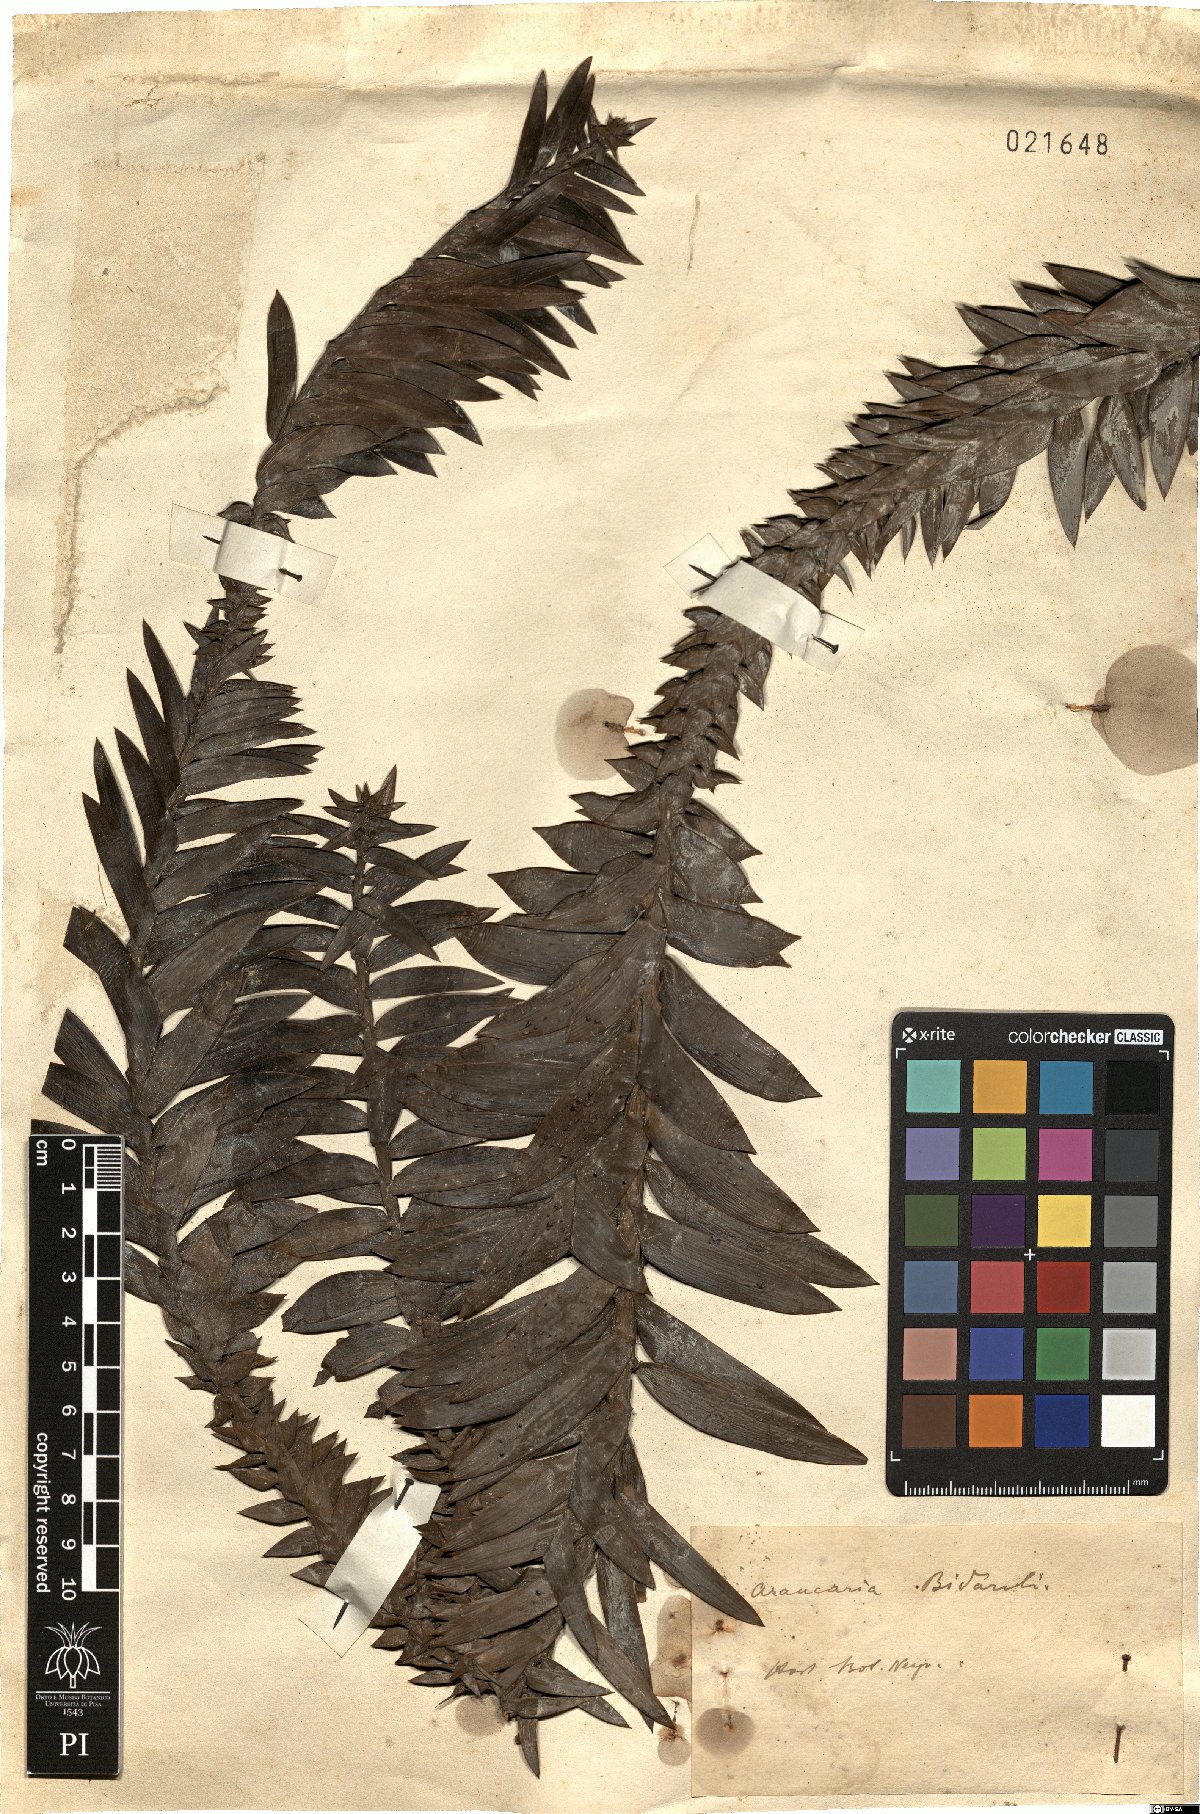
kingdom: Plantae
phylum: Tracheophyta
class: Pinopsida
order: Pinales
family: Araucariaceae
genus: Araucaria
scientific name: Araucaria bidwillii
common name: Moreton-bay-pine
